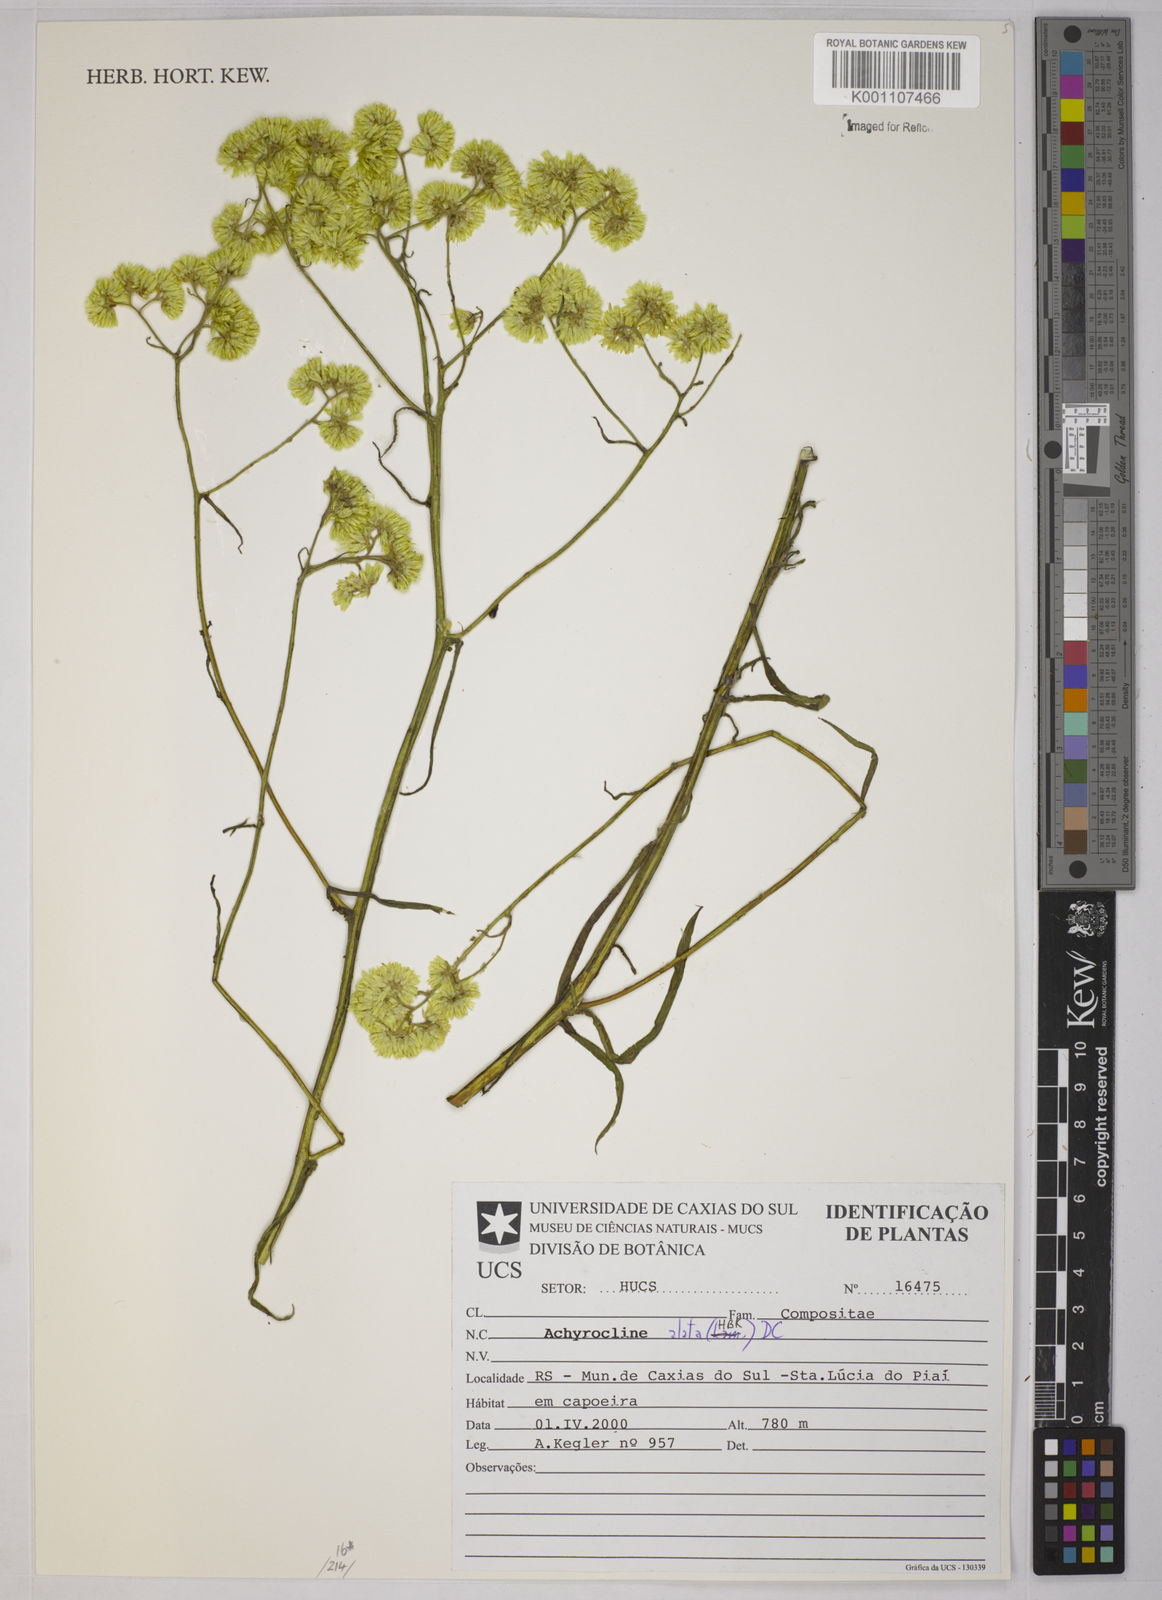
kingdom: Plantae
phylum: Tracheophyta
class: Magnoliopsida
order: Asterales
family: Asteraceae
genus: Achyrocline
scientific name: Achyrocline alata
